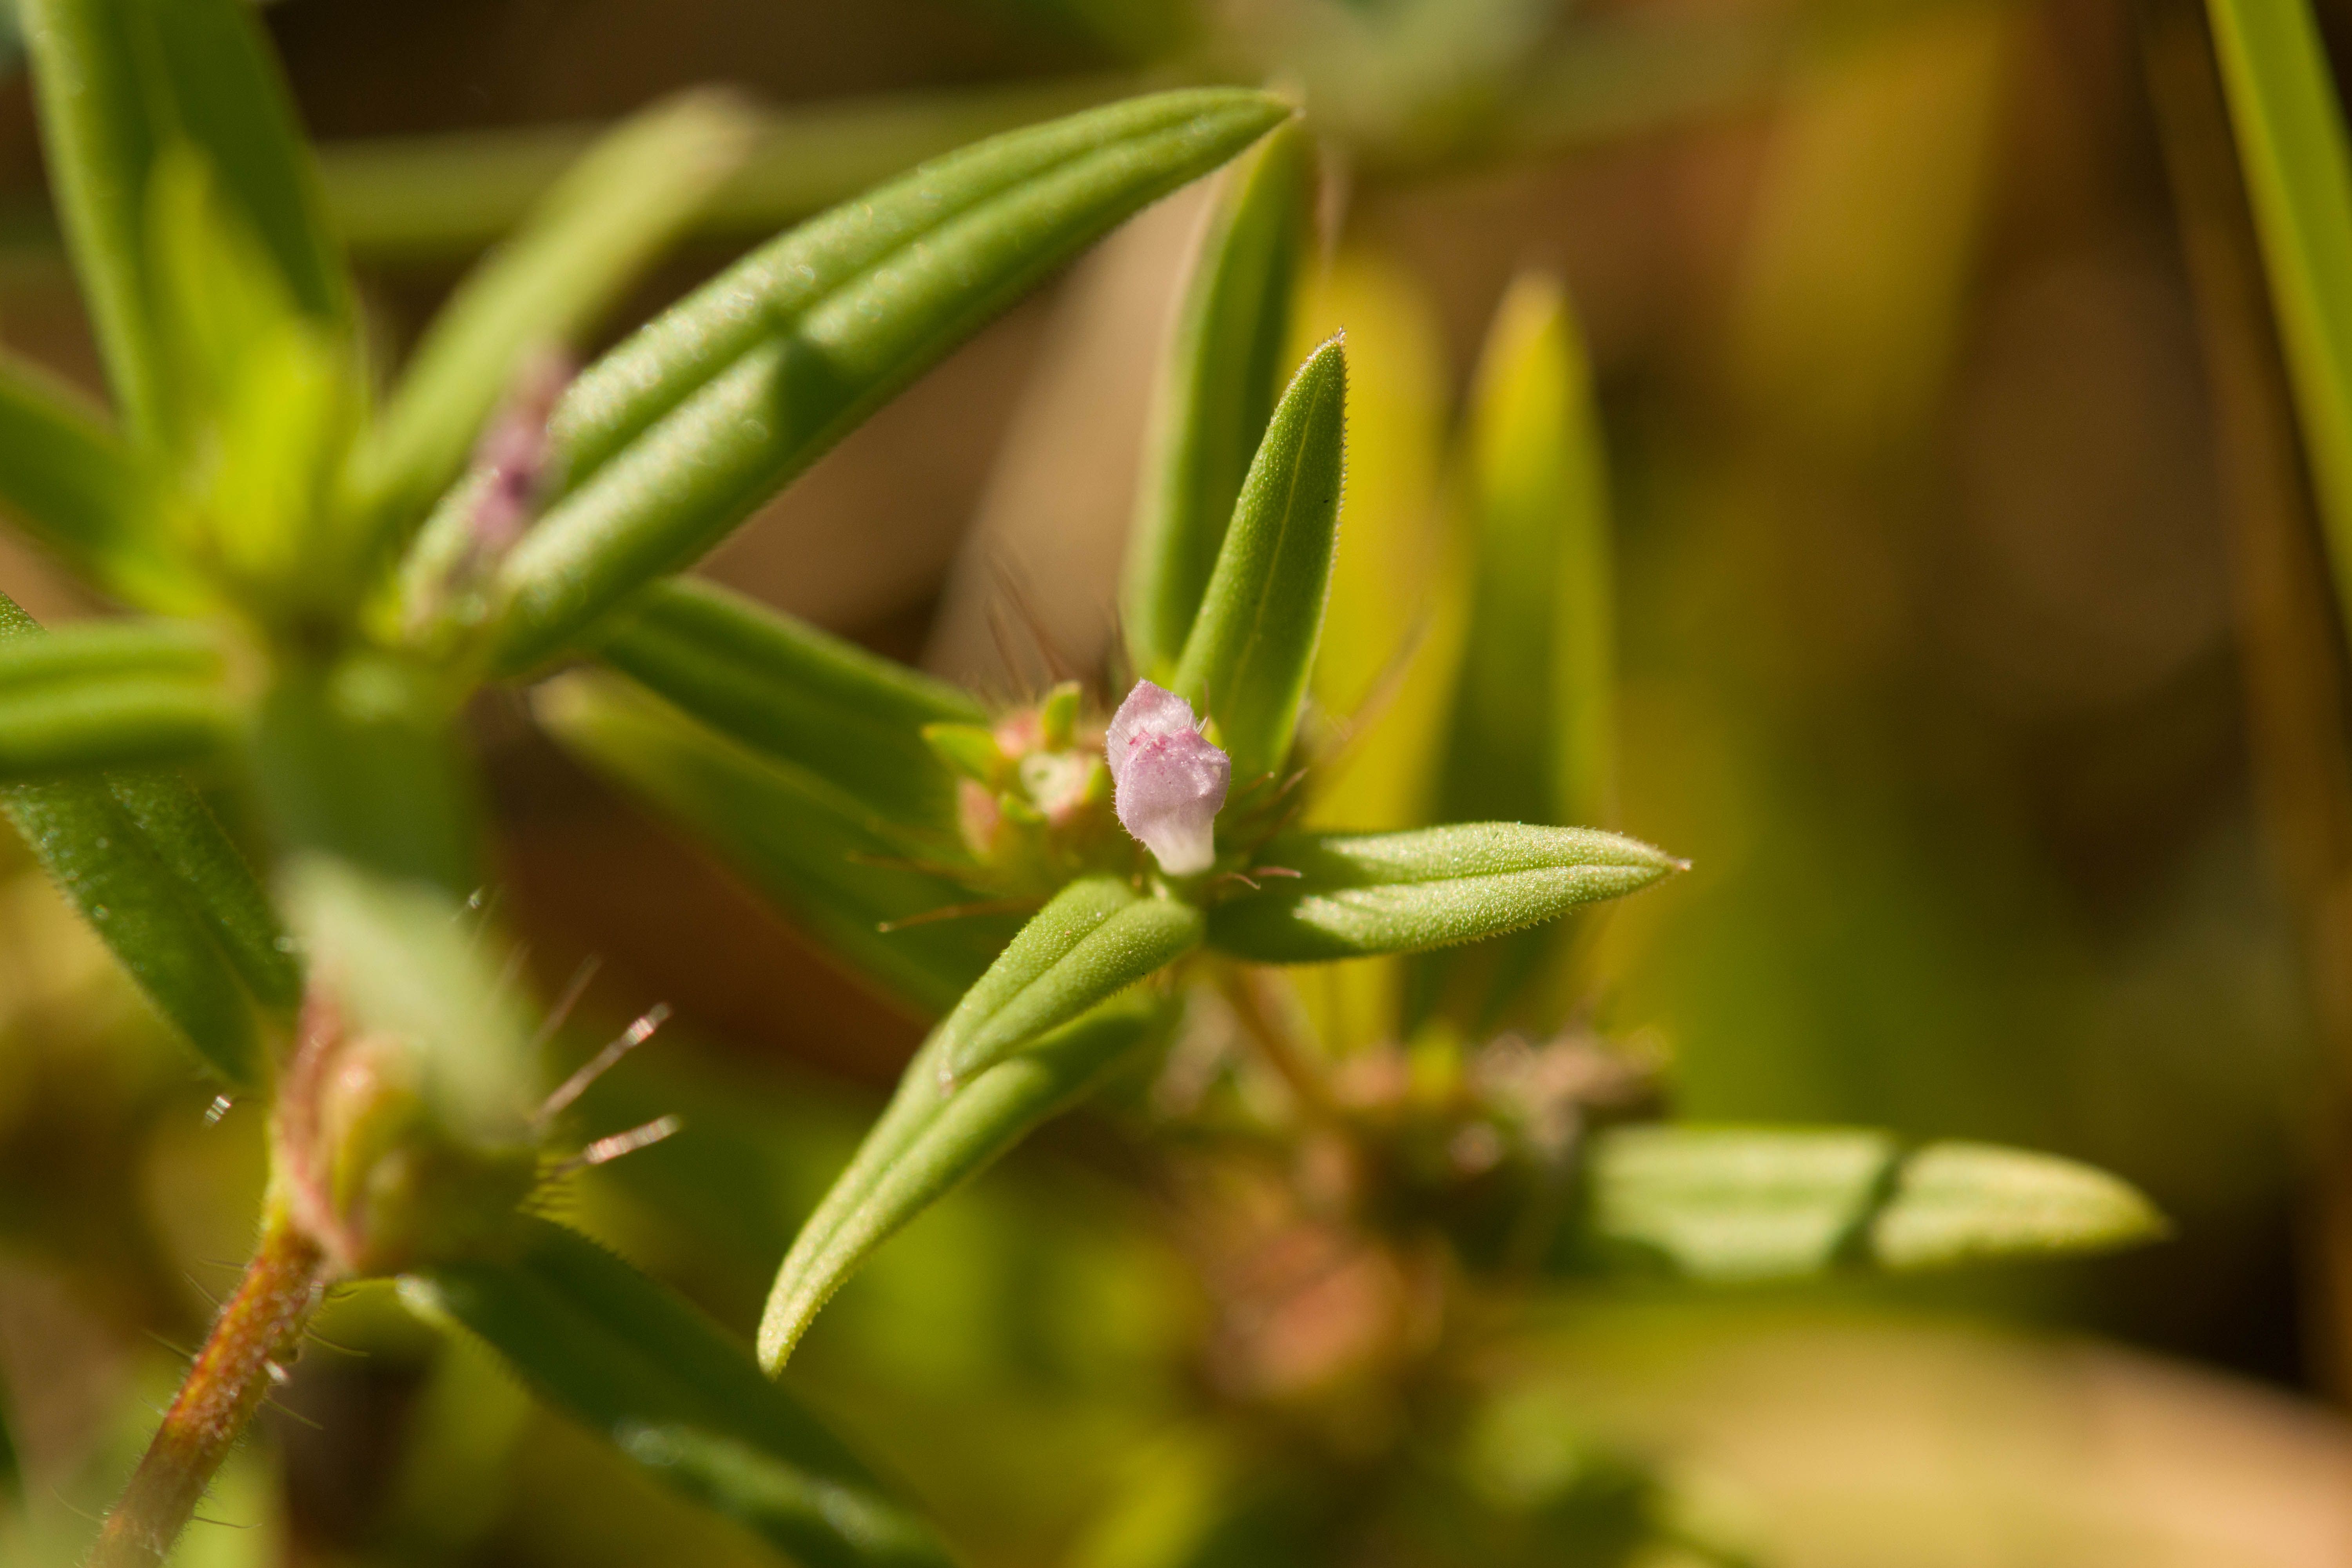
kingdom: Plantae
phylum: Tracheophyta
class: Magnoliopsida
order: Gentianales
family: Rubiaceae
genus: Hexasepalum
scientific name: Hexasepalum teres
